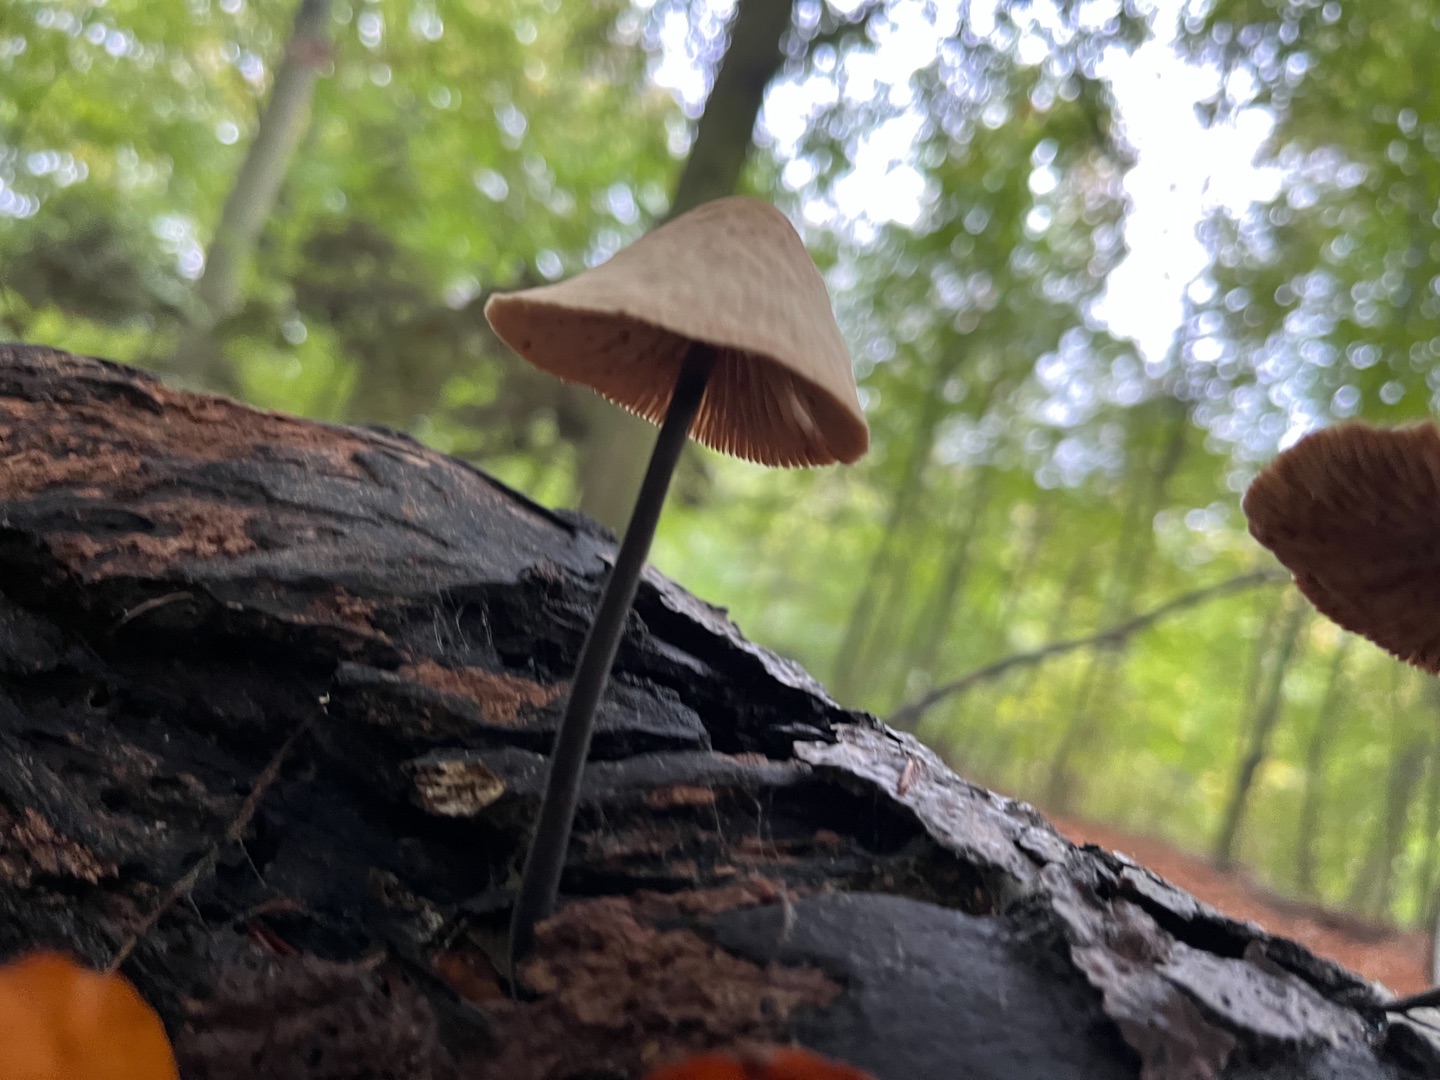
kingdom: Fungi
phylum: Basidiomycota
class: Agaricomycetes
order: Agaricales
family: Omphalotaceae
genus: Mycetinis
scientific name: Mycetinis alliaceus
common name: Stor løghat
